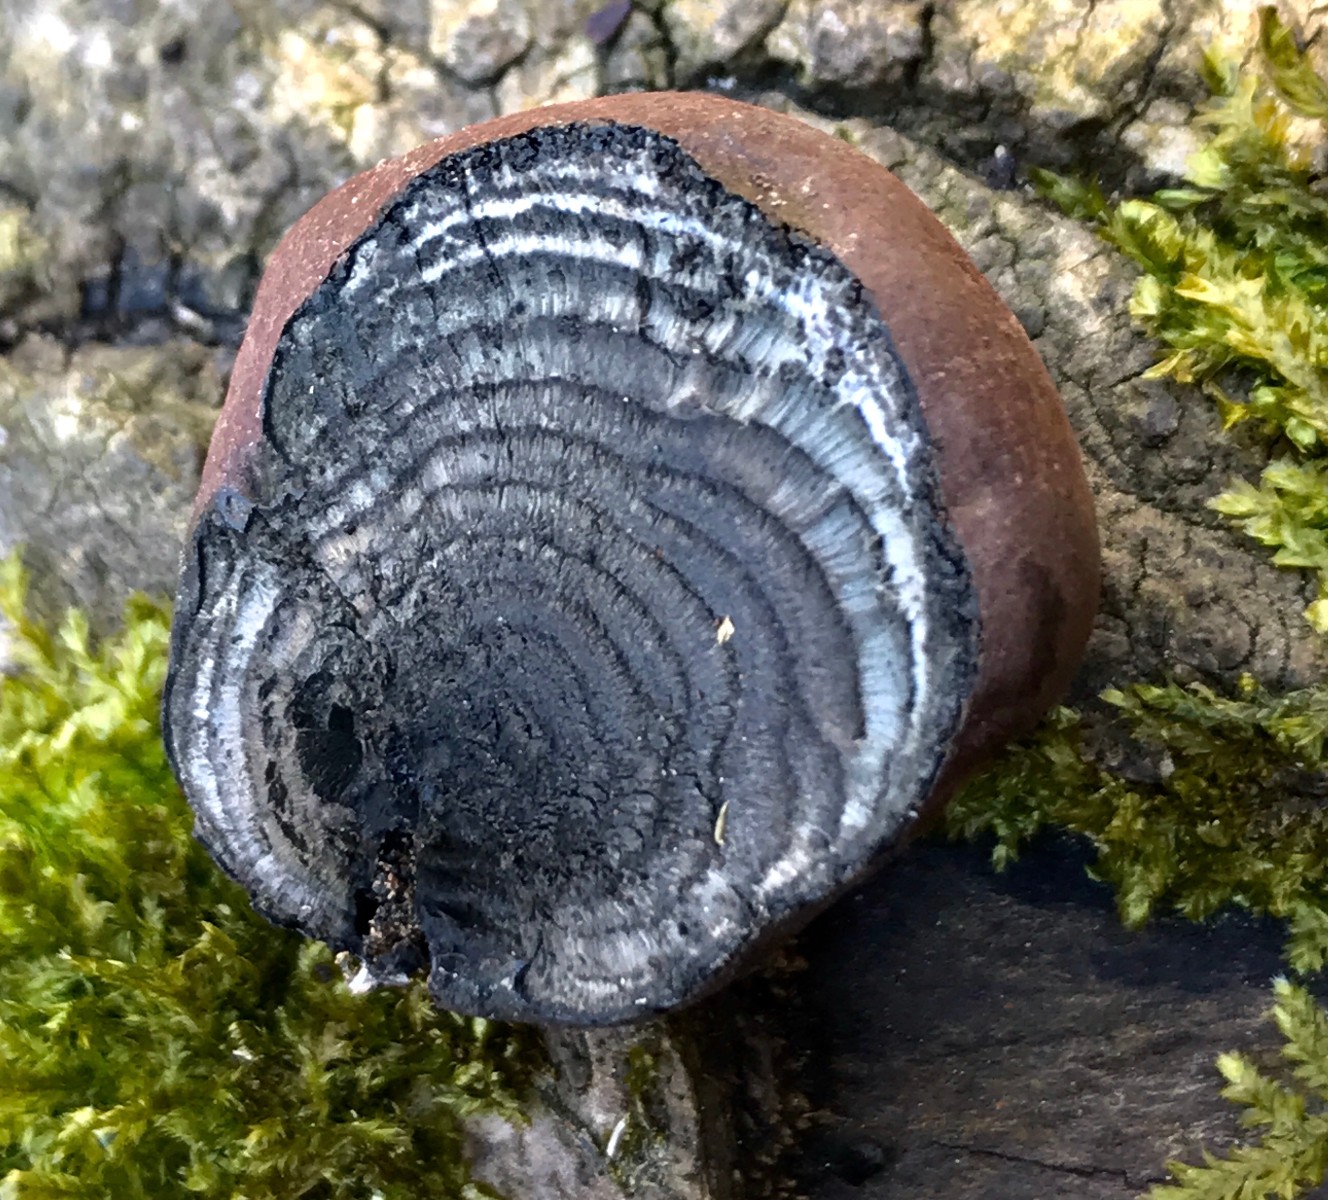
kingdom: Fungi
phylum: Ascomycota
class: Sordariomycetes
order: Xylariales
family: Hypoxylaceae
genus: Daldinia
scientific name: Daldinia concentrica
